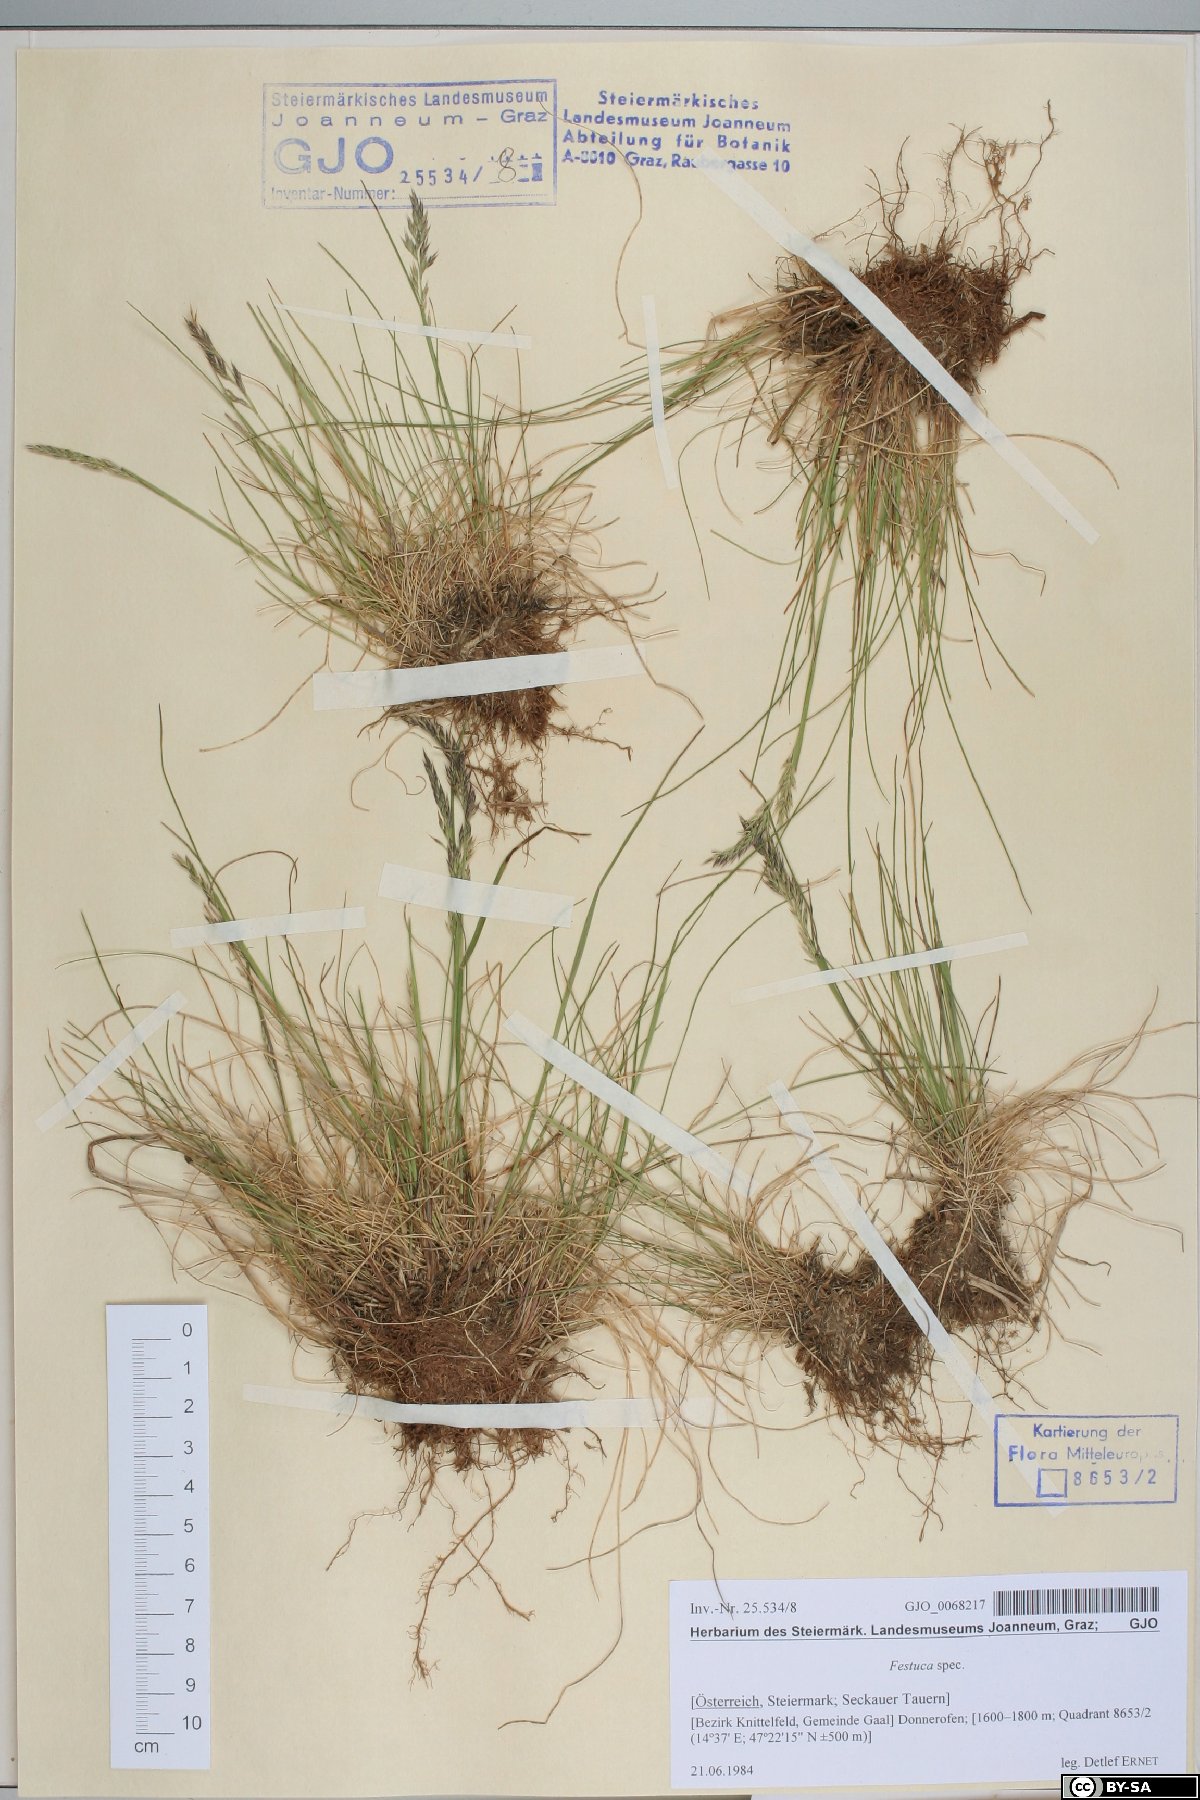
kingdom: Plantae
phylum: Tracheophyta
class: Liliopsida
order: Poales
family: Poaceae
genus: Festuca
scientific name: Festuca
